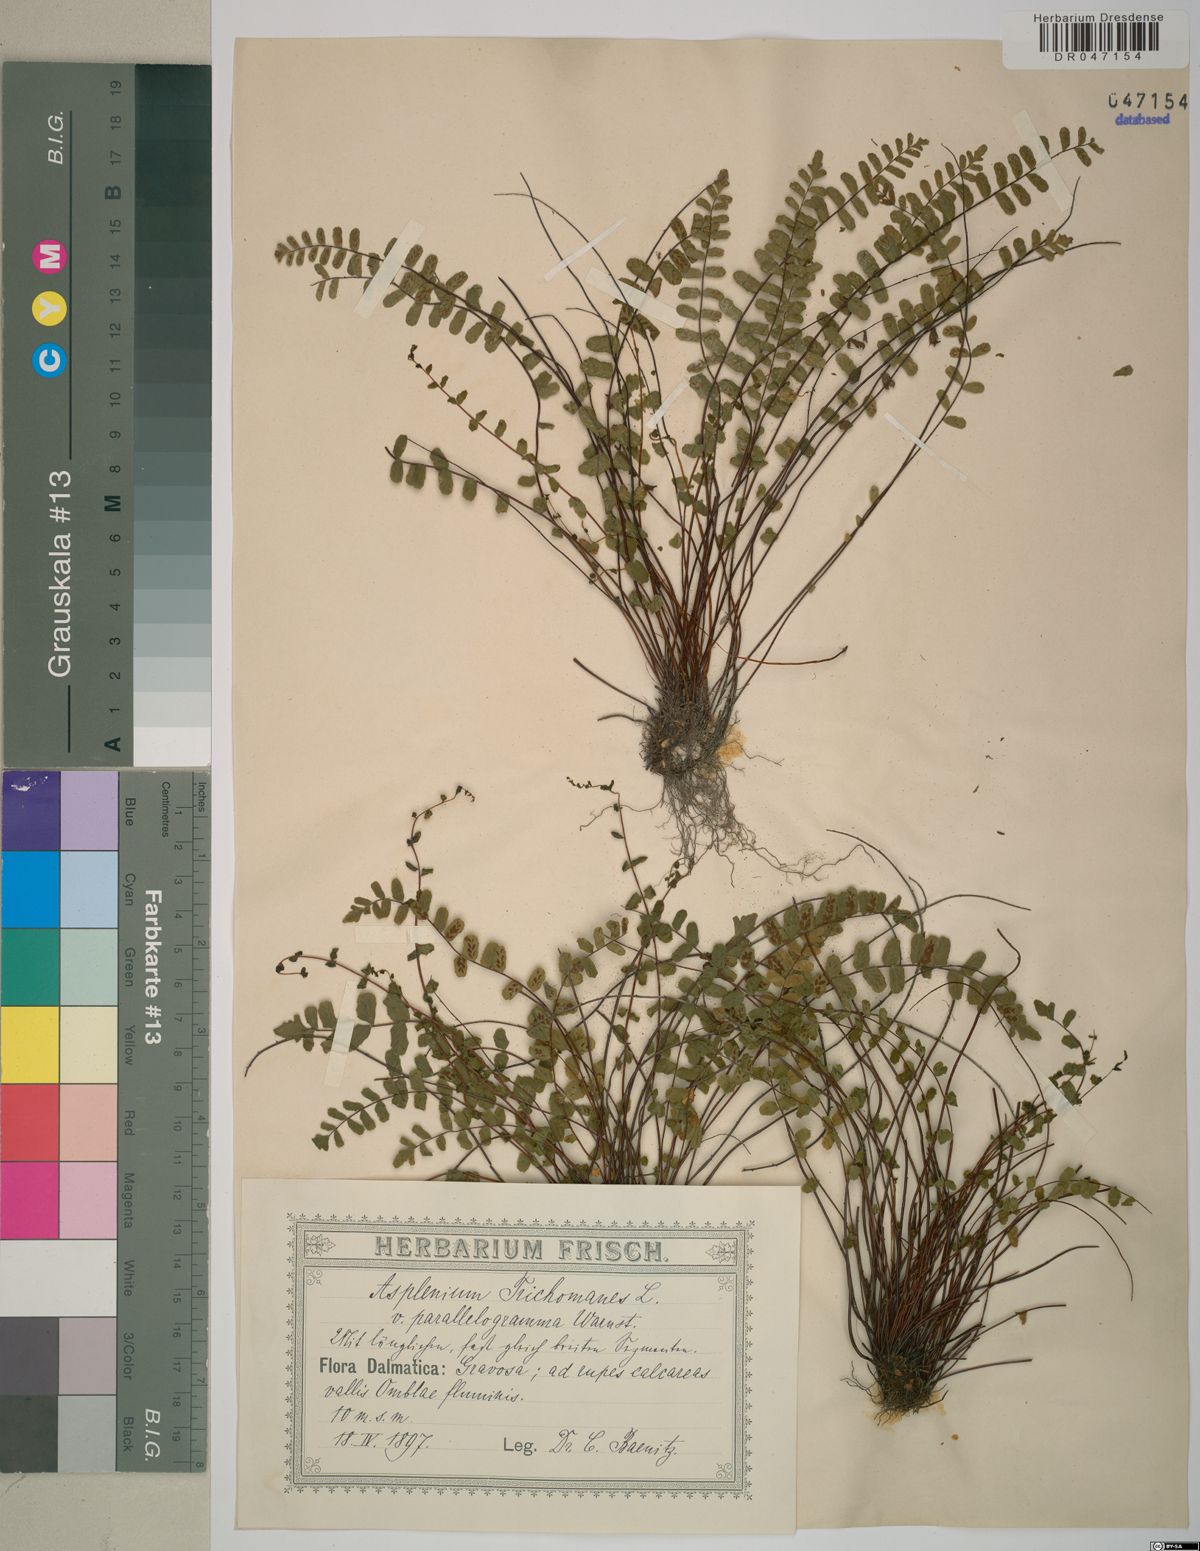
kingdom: Plantae
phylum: Tracheophyta
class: Polypodiopsida
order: Polypodiales
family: Aspleniaceae
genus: Asplenium
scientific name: Asplenium trichomanes
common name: Maidenhair spleenwort
